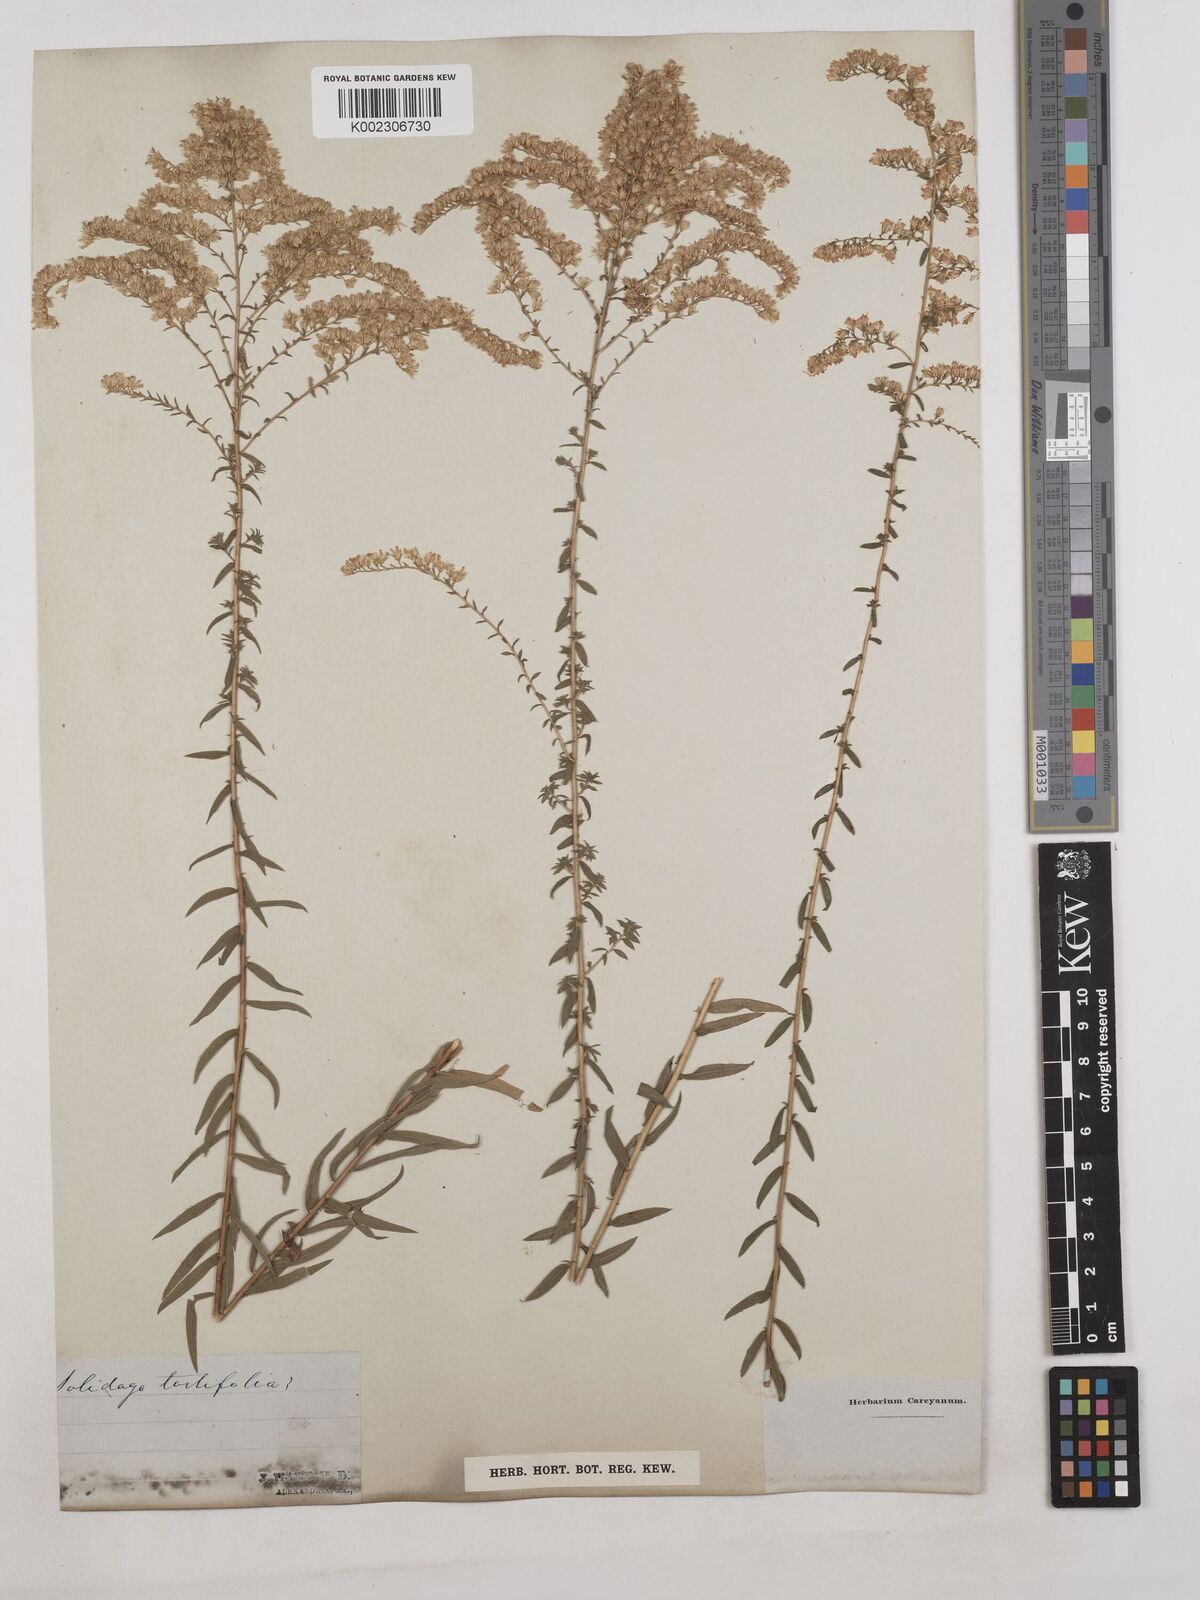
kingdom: Plantae
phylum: Tracheophyta
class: Magnoliopsida
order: Asterales
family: Asteraceae
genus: Solidago
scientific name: Solidago tortifolia
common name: Twisted-leaf goldenrod
